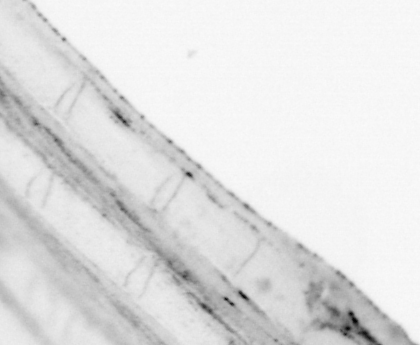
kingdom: Animalia
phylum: Chordata
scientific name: Chordata
